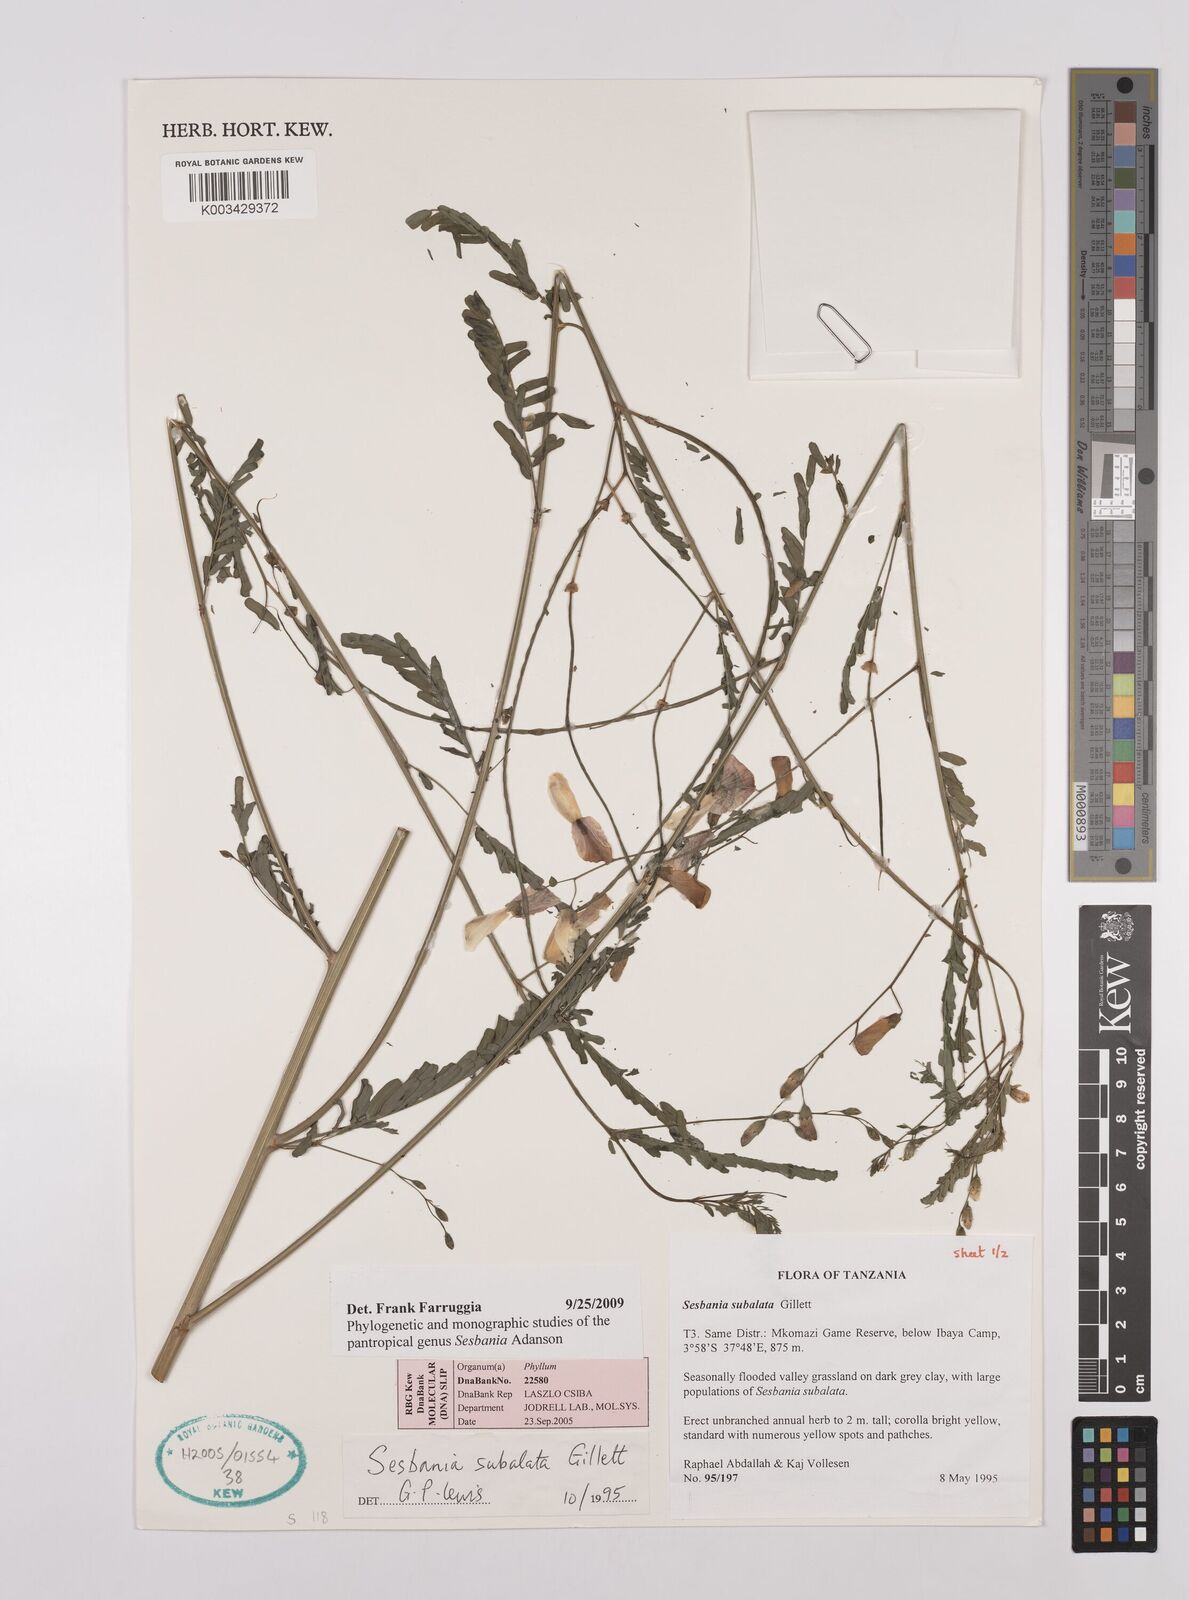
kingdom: Plantae
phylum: Tracheophyta
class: Magnoliopsida
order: Fabales
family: Fabaceae
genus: Sesbania
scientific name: Sesbania subalata
